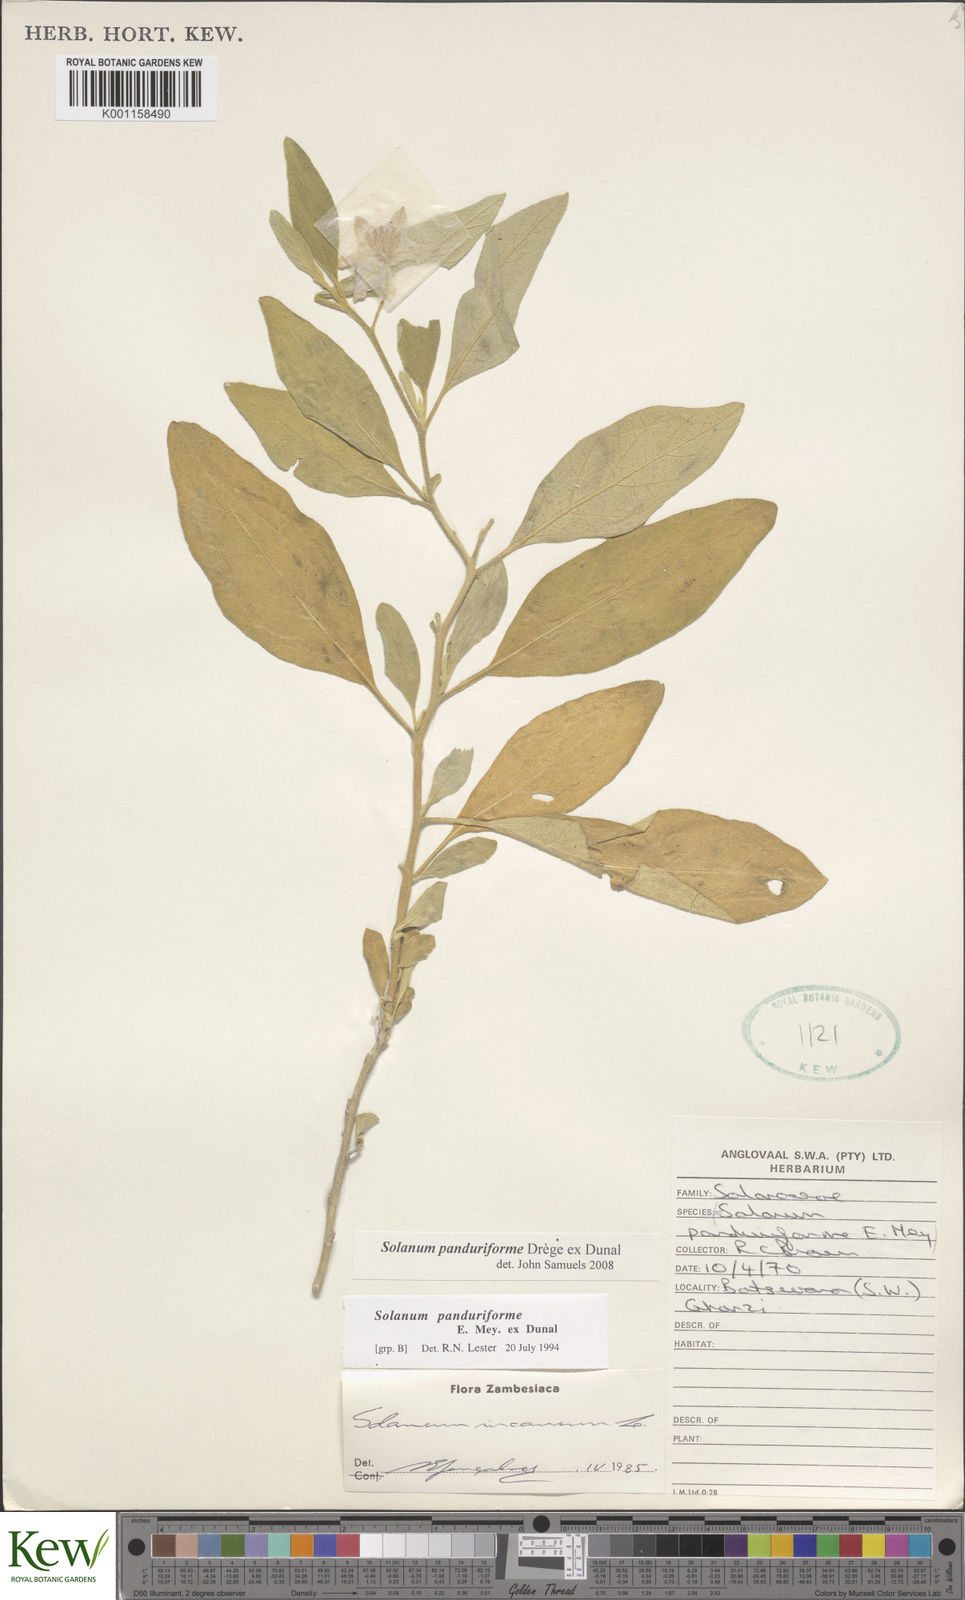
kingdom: Plantae
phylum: Tracheophyta
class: Magnoliopsida
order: Solanales
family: Solanaceae
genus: Solanum
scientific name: Solanum campylacanthum
